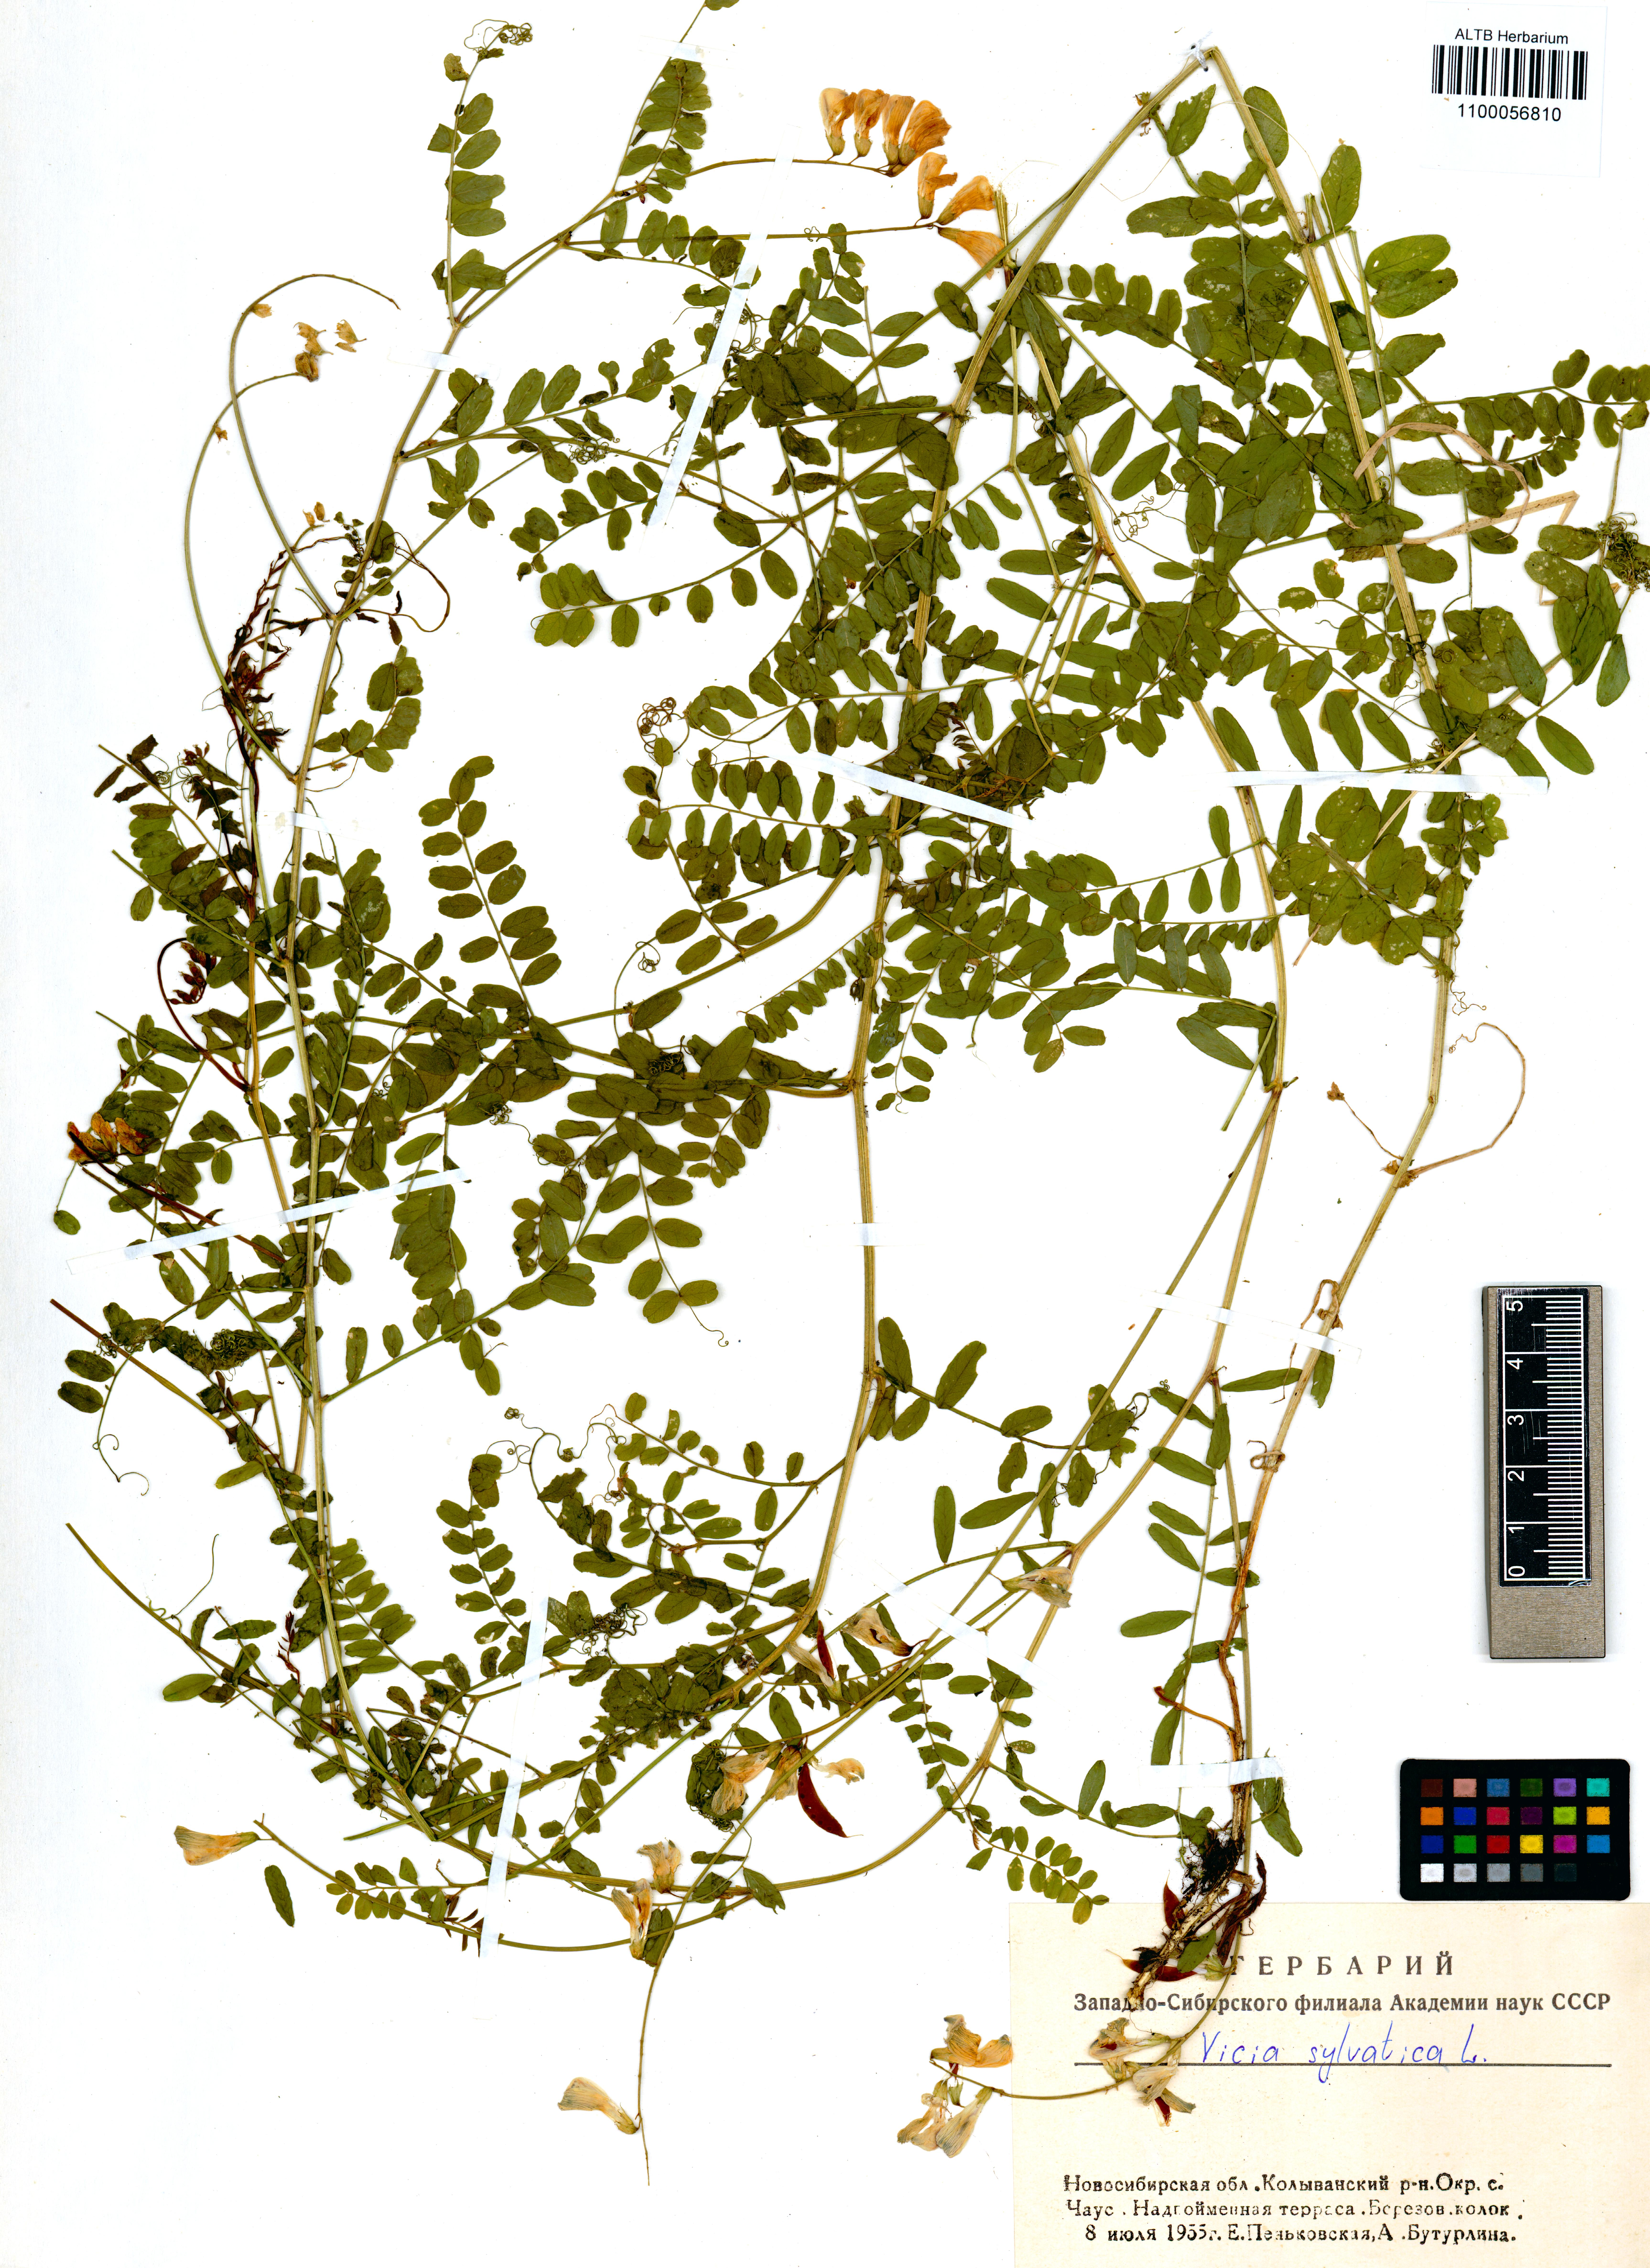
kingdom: Plantae
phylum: Tracheophyta
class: Magnoliopsida
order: Fabales
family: Fabaceae
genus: Vicia
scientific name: Vicia sylvatica
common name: Wood vetch
